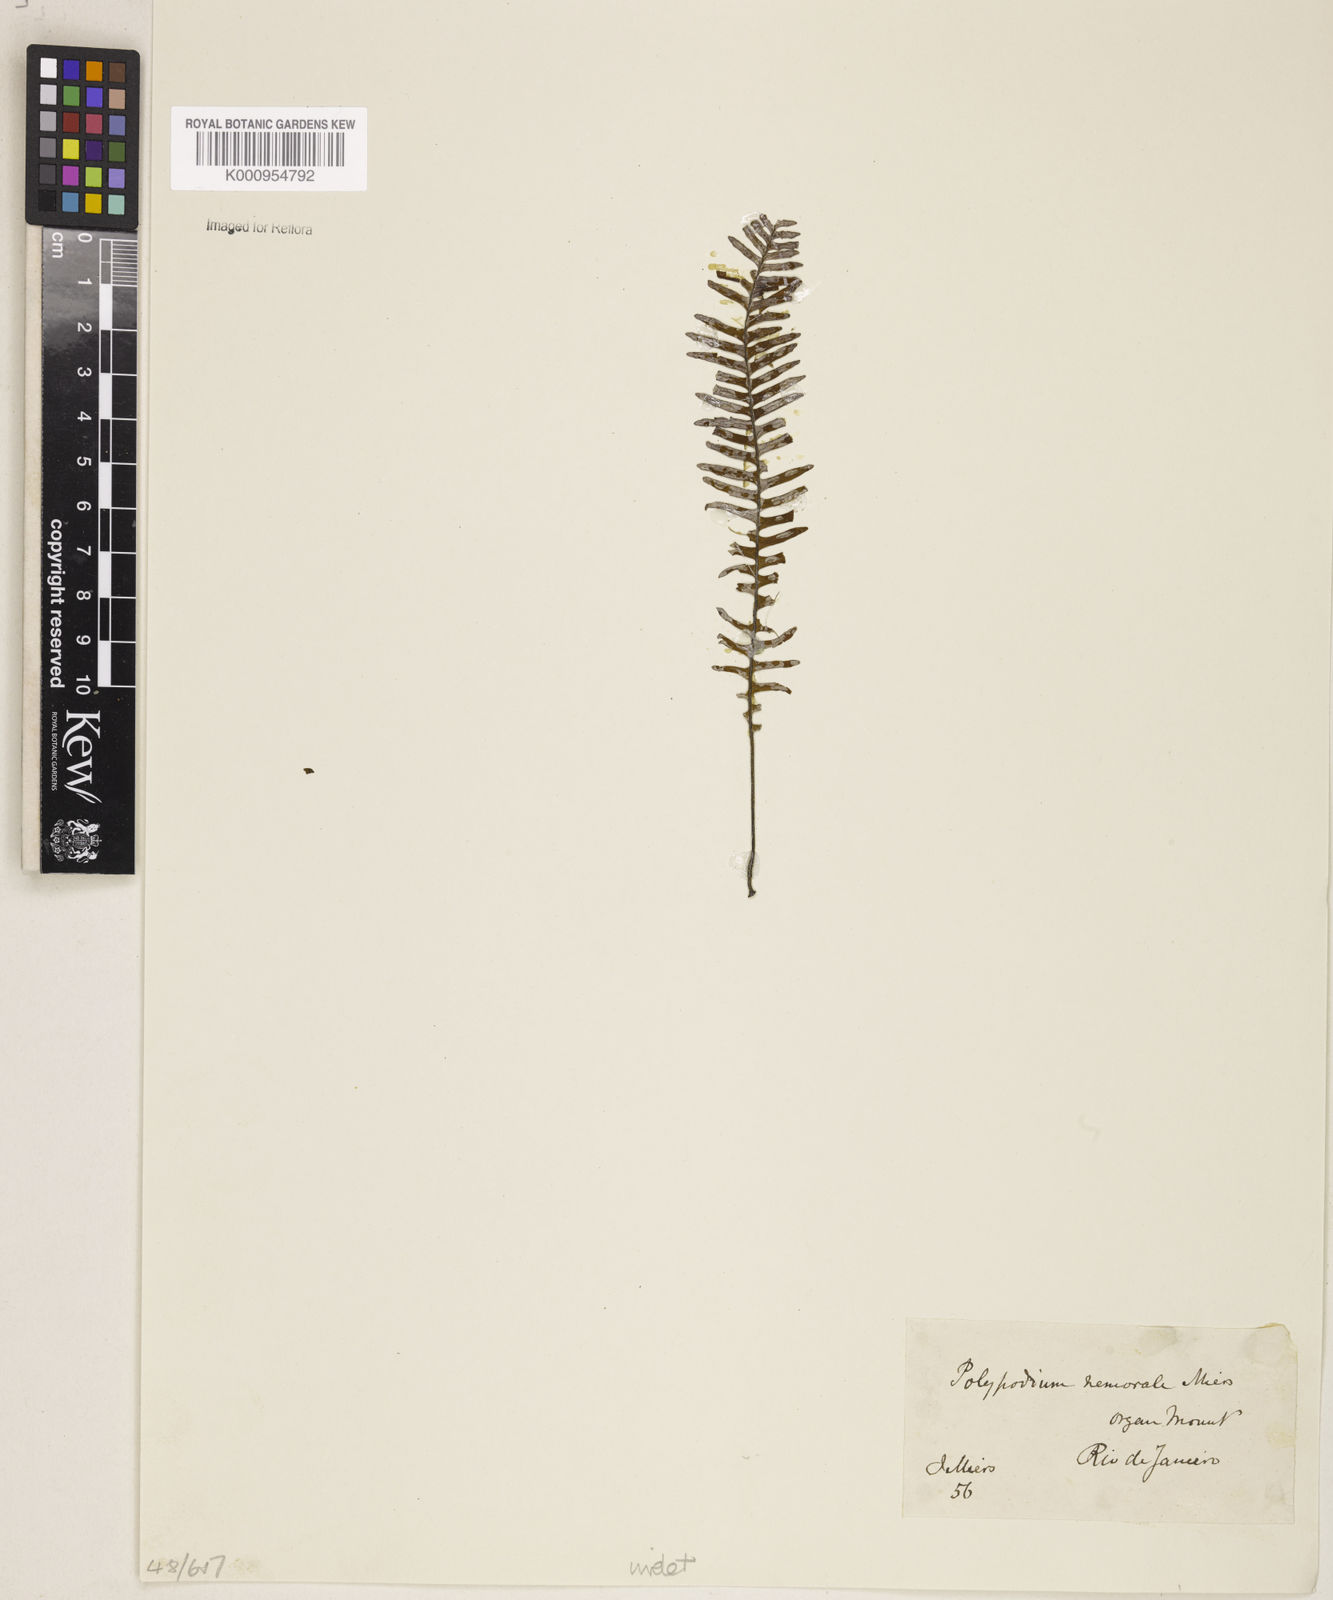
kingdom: Plantae
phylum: Tracheophyta
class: Polypodiopsida
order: Polypodiales
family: Polypodiaceae
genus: Pecluma
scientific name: Pecluma
